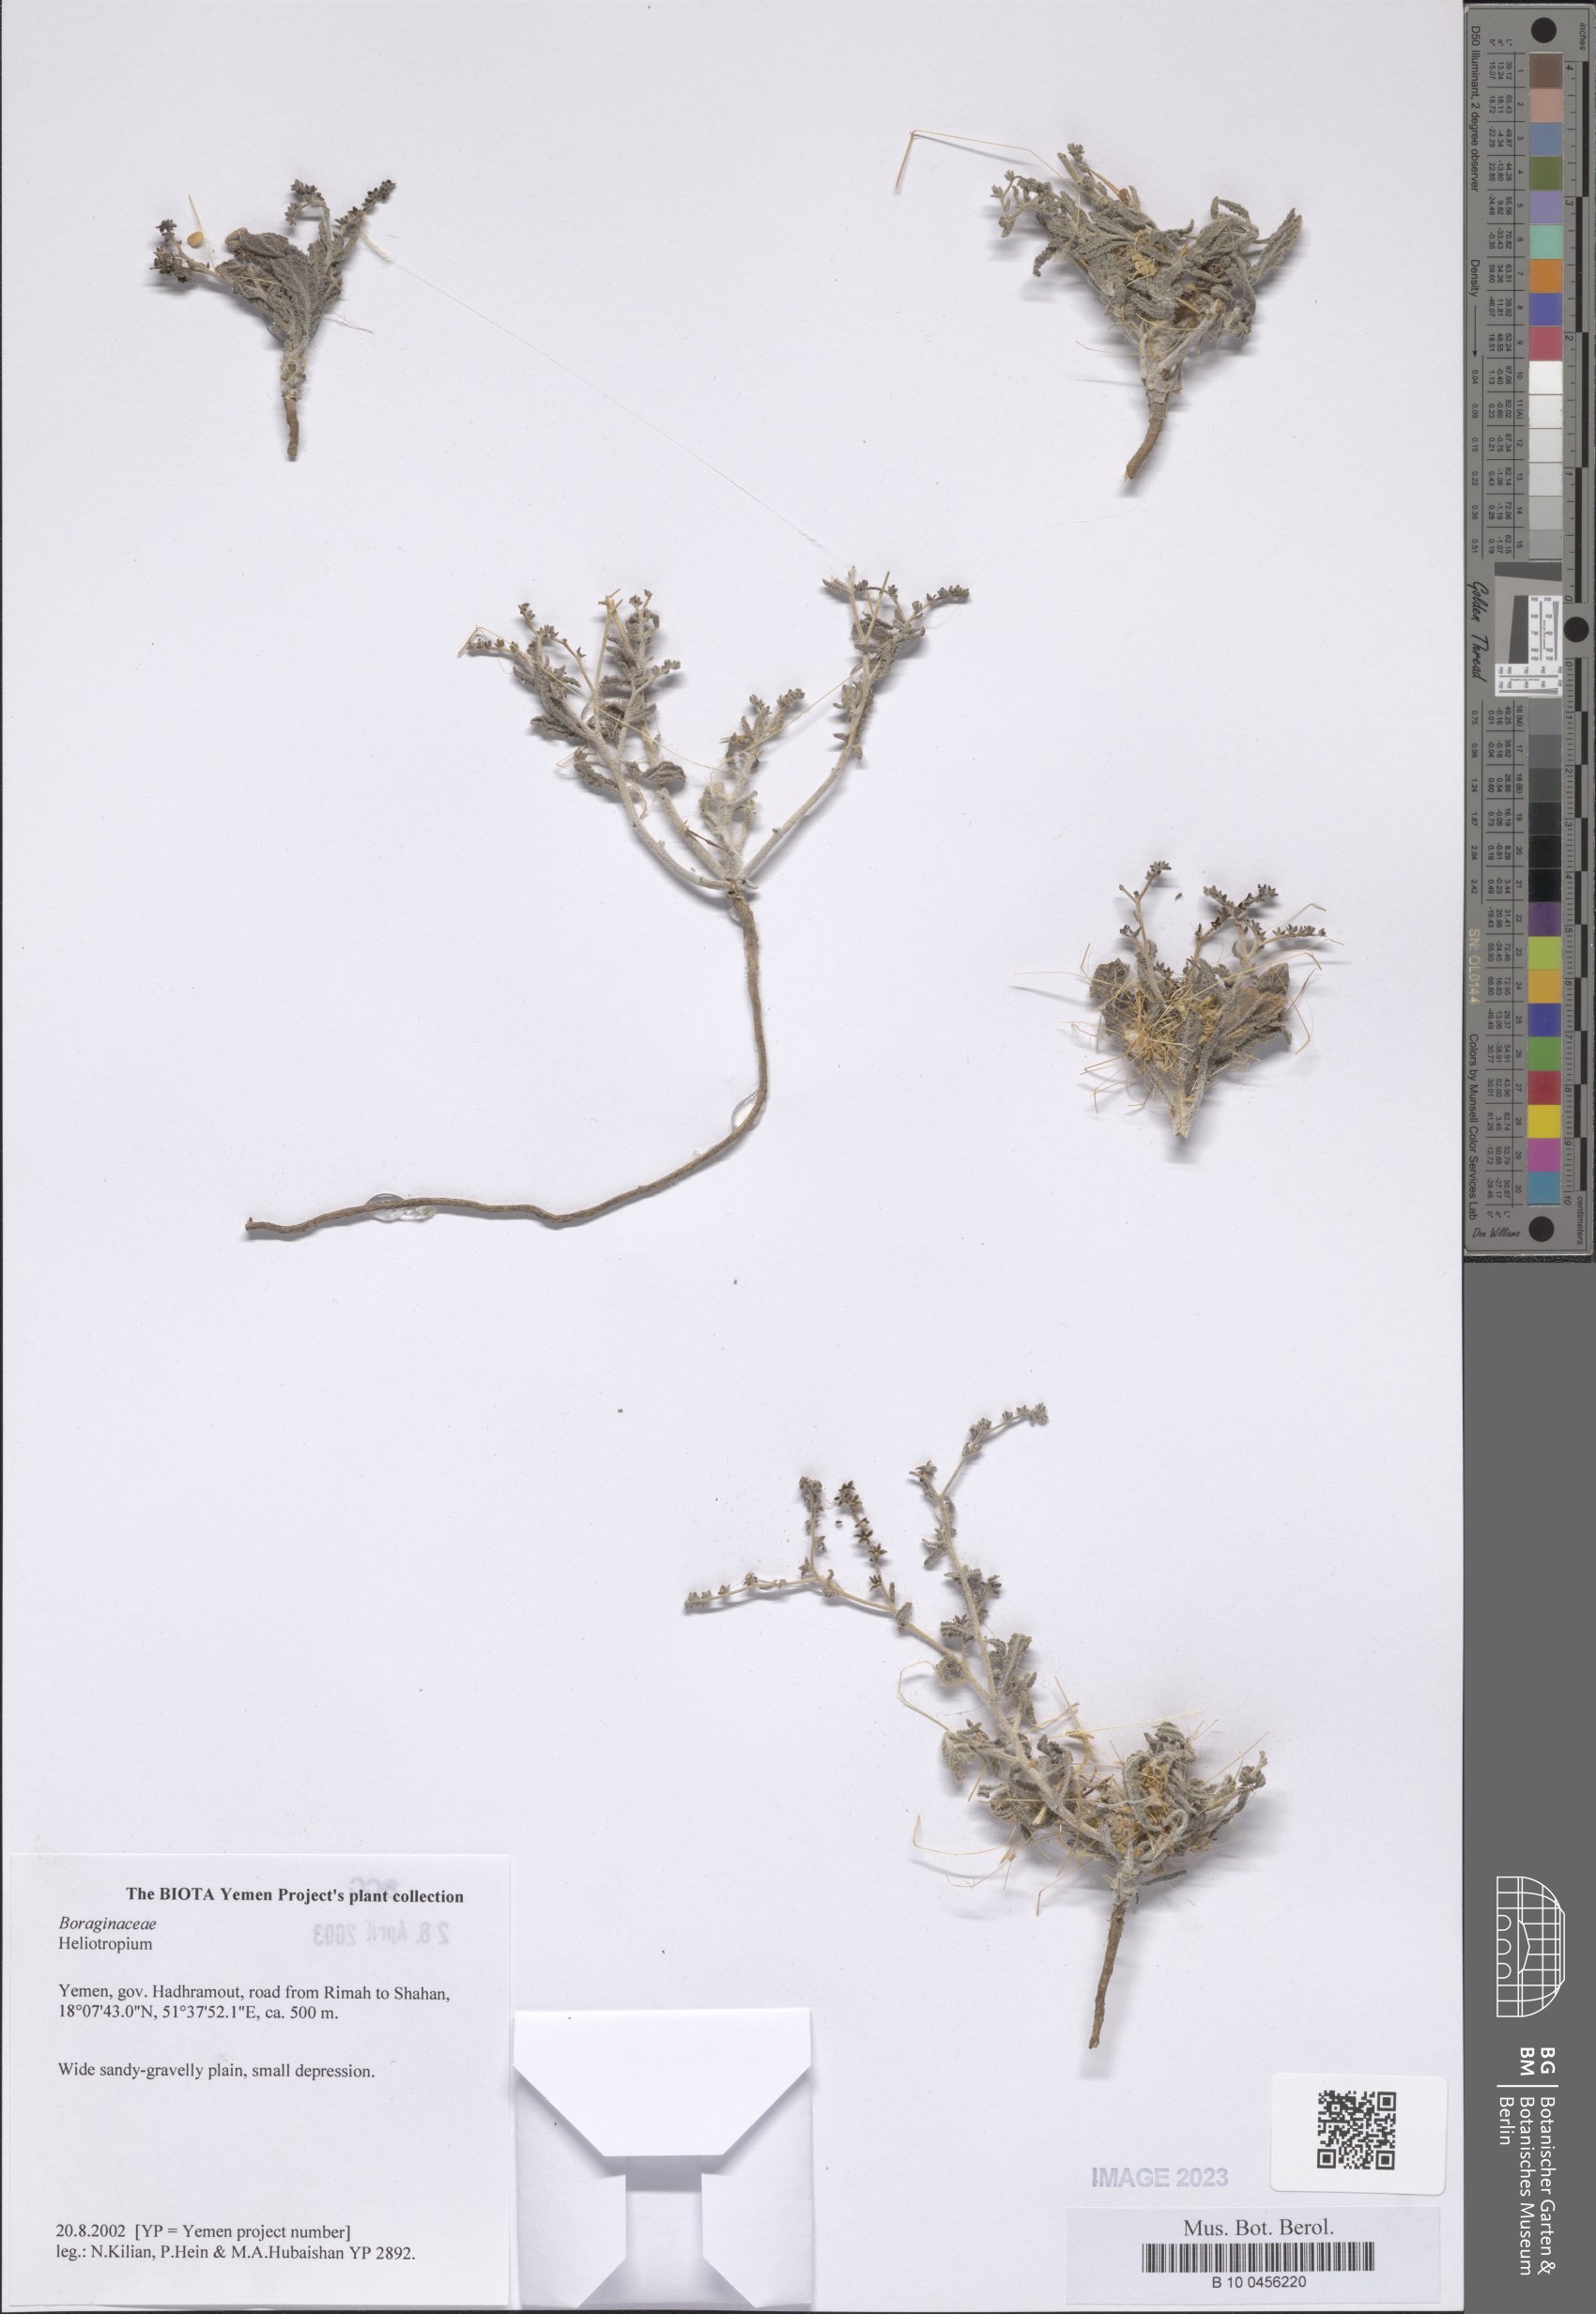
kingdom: Plantae
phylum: Tracheophyta
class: Magnoliopsida
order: Boraginales
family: Heliotropiaceae
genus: Heliotropium
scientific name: Heliotropium
